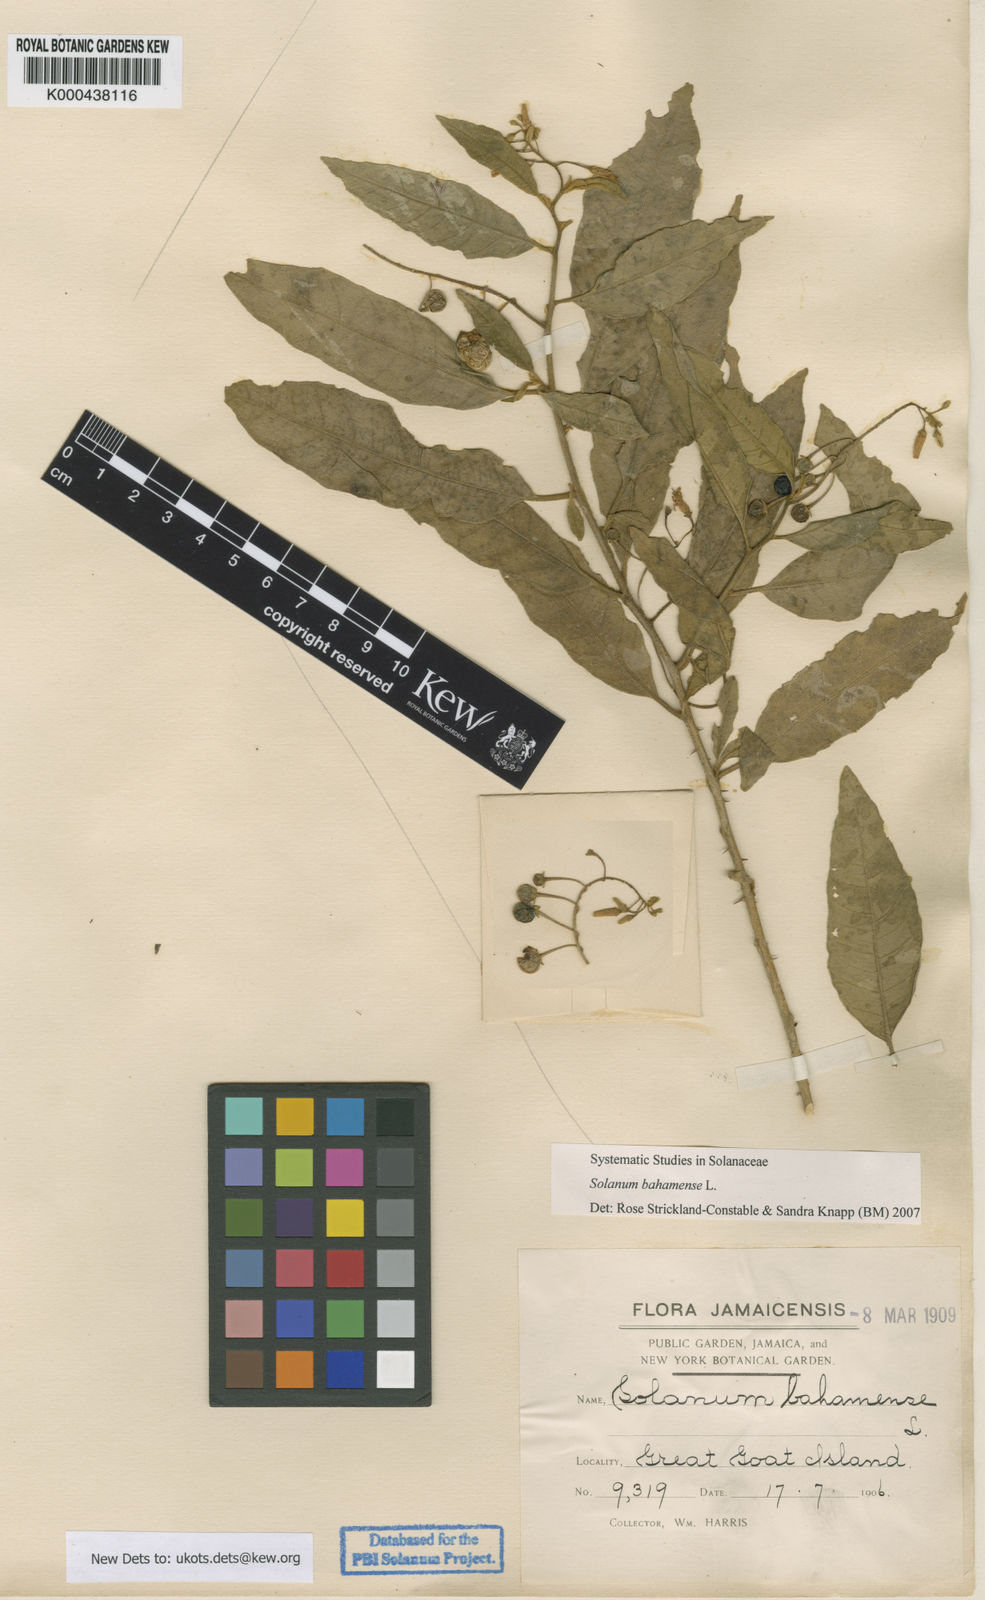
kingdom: Plantae
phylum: Tracheophyta
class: Magnoliopsida
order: Solanales
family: Solanaceae
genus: Solanum
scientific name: Solanum bahamense
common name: Canker-berry
